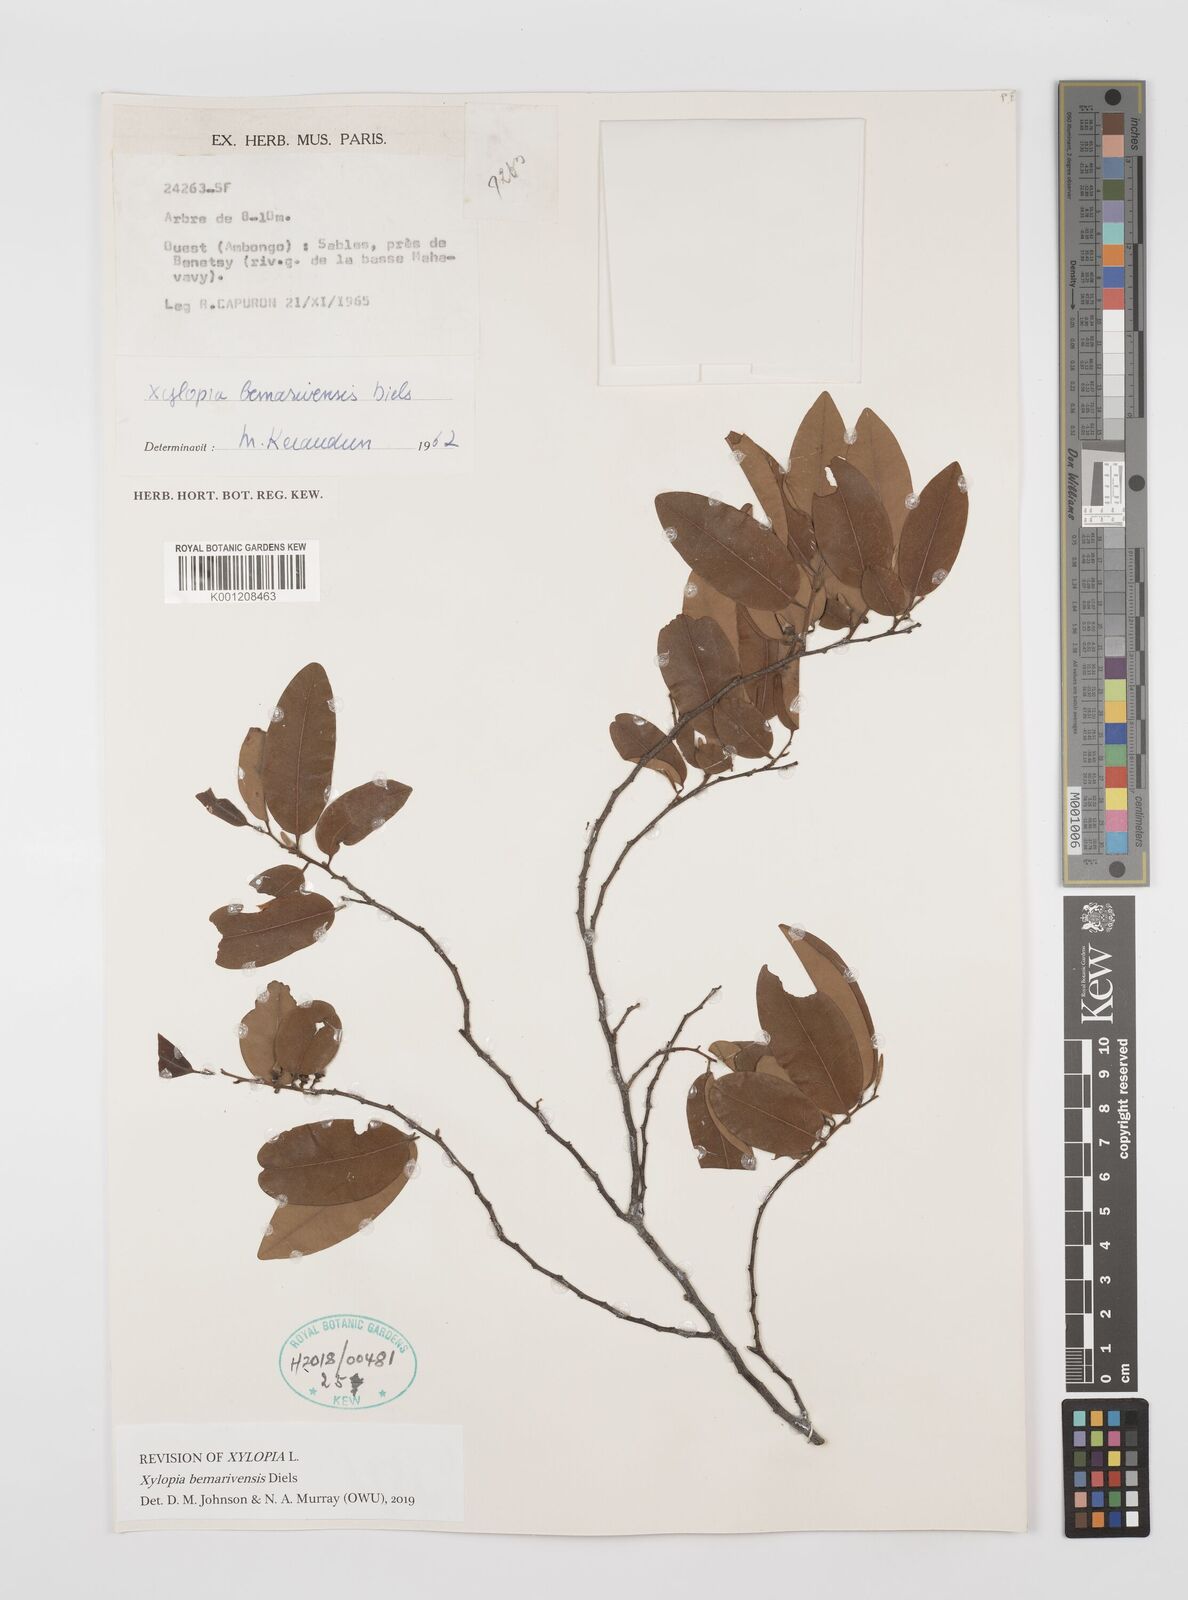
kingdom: Plantae
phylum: Tracheophyta
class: Magnoliopsida
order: Magnoliales
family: Annonaceae
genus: Xylopia
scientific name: Xylopia bemarivensis
